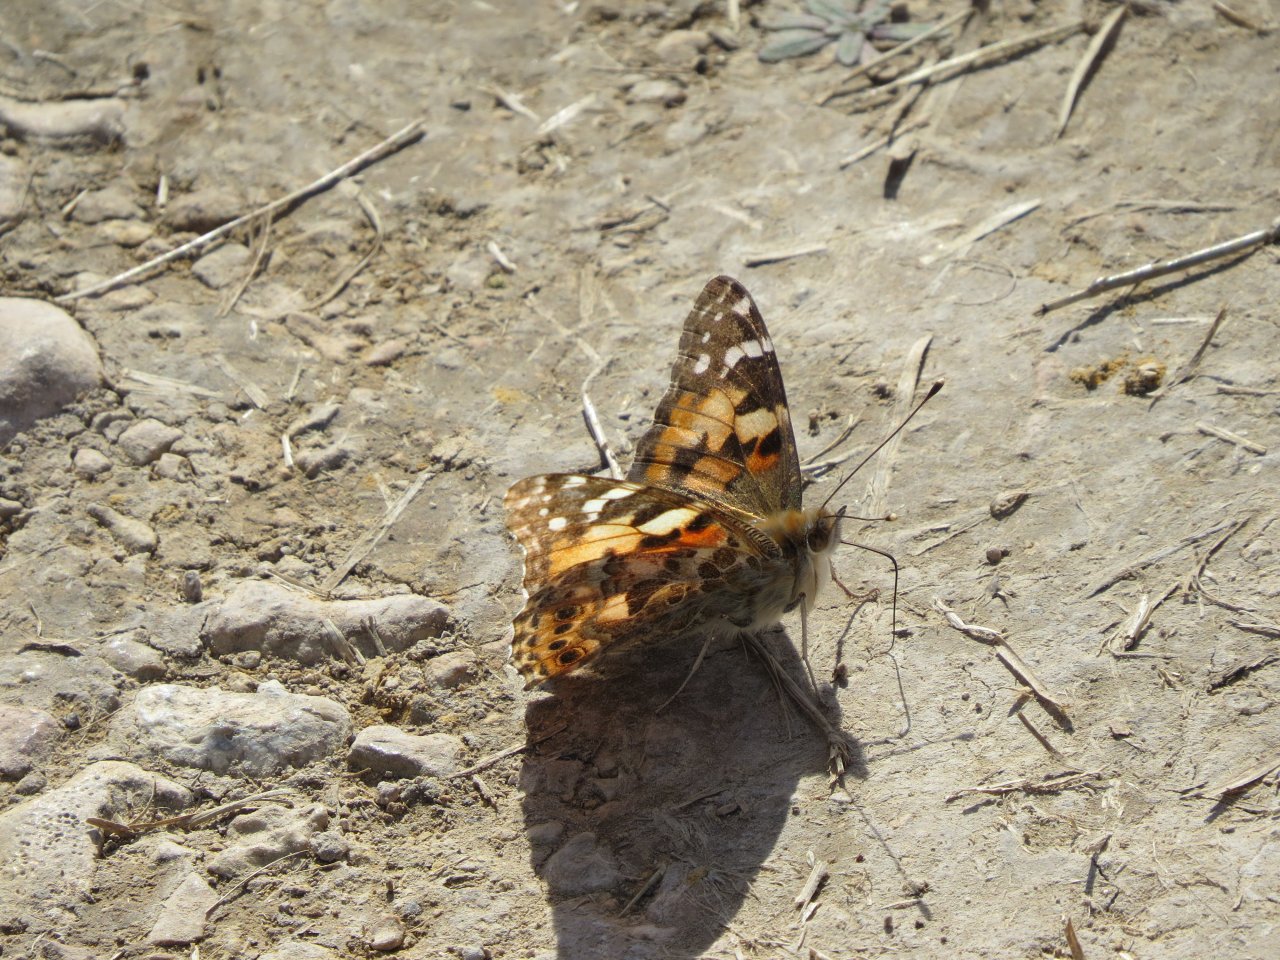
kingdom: Animalia
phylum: Arthropoda
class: Insecta
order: Lepidoptera
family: Nymphalidae
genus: Vanessa
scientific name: Vanessa cardui
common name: Painted Lady
